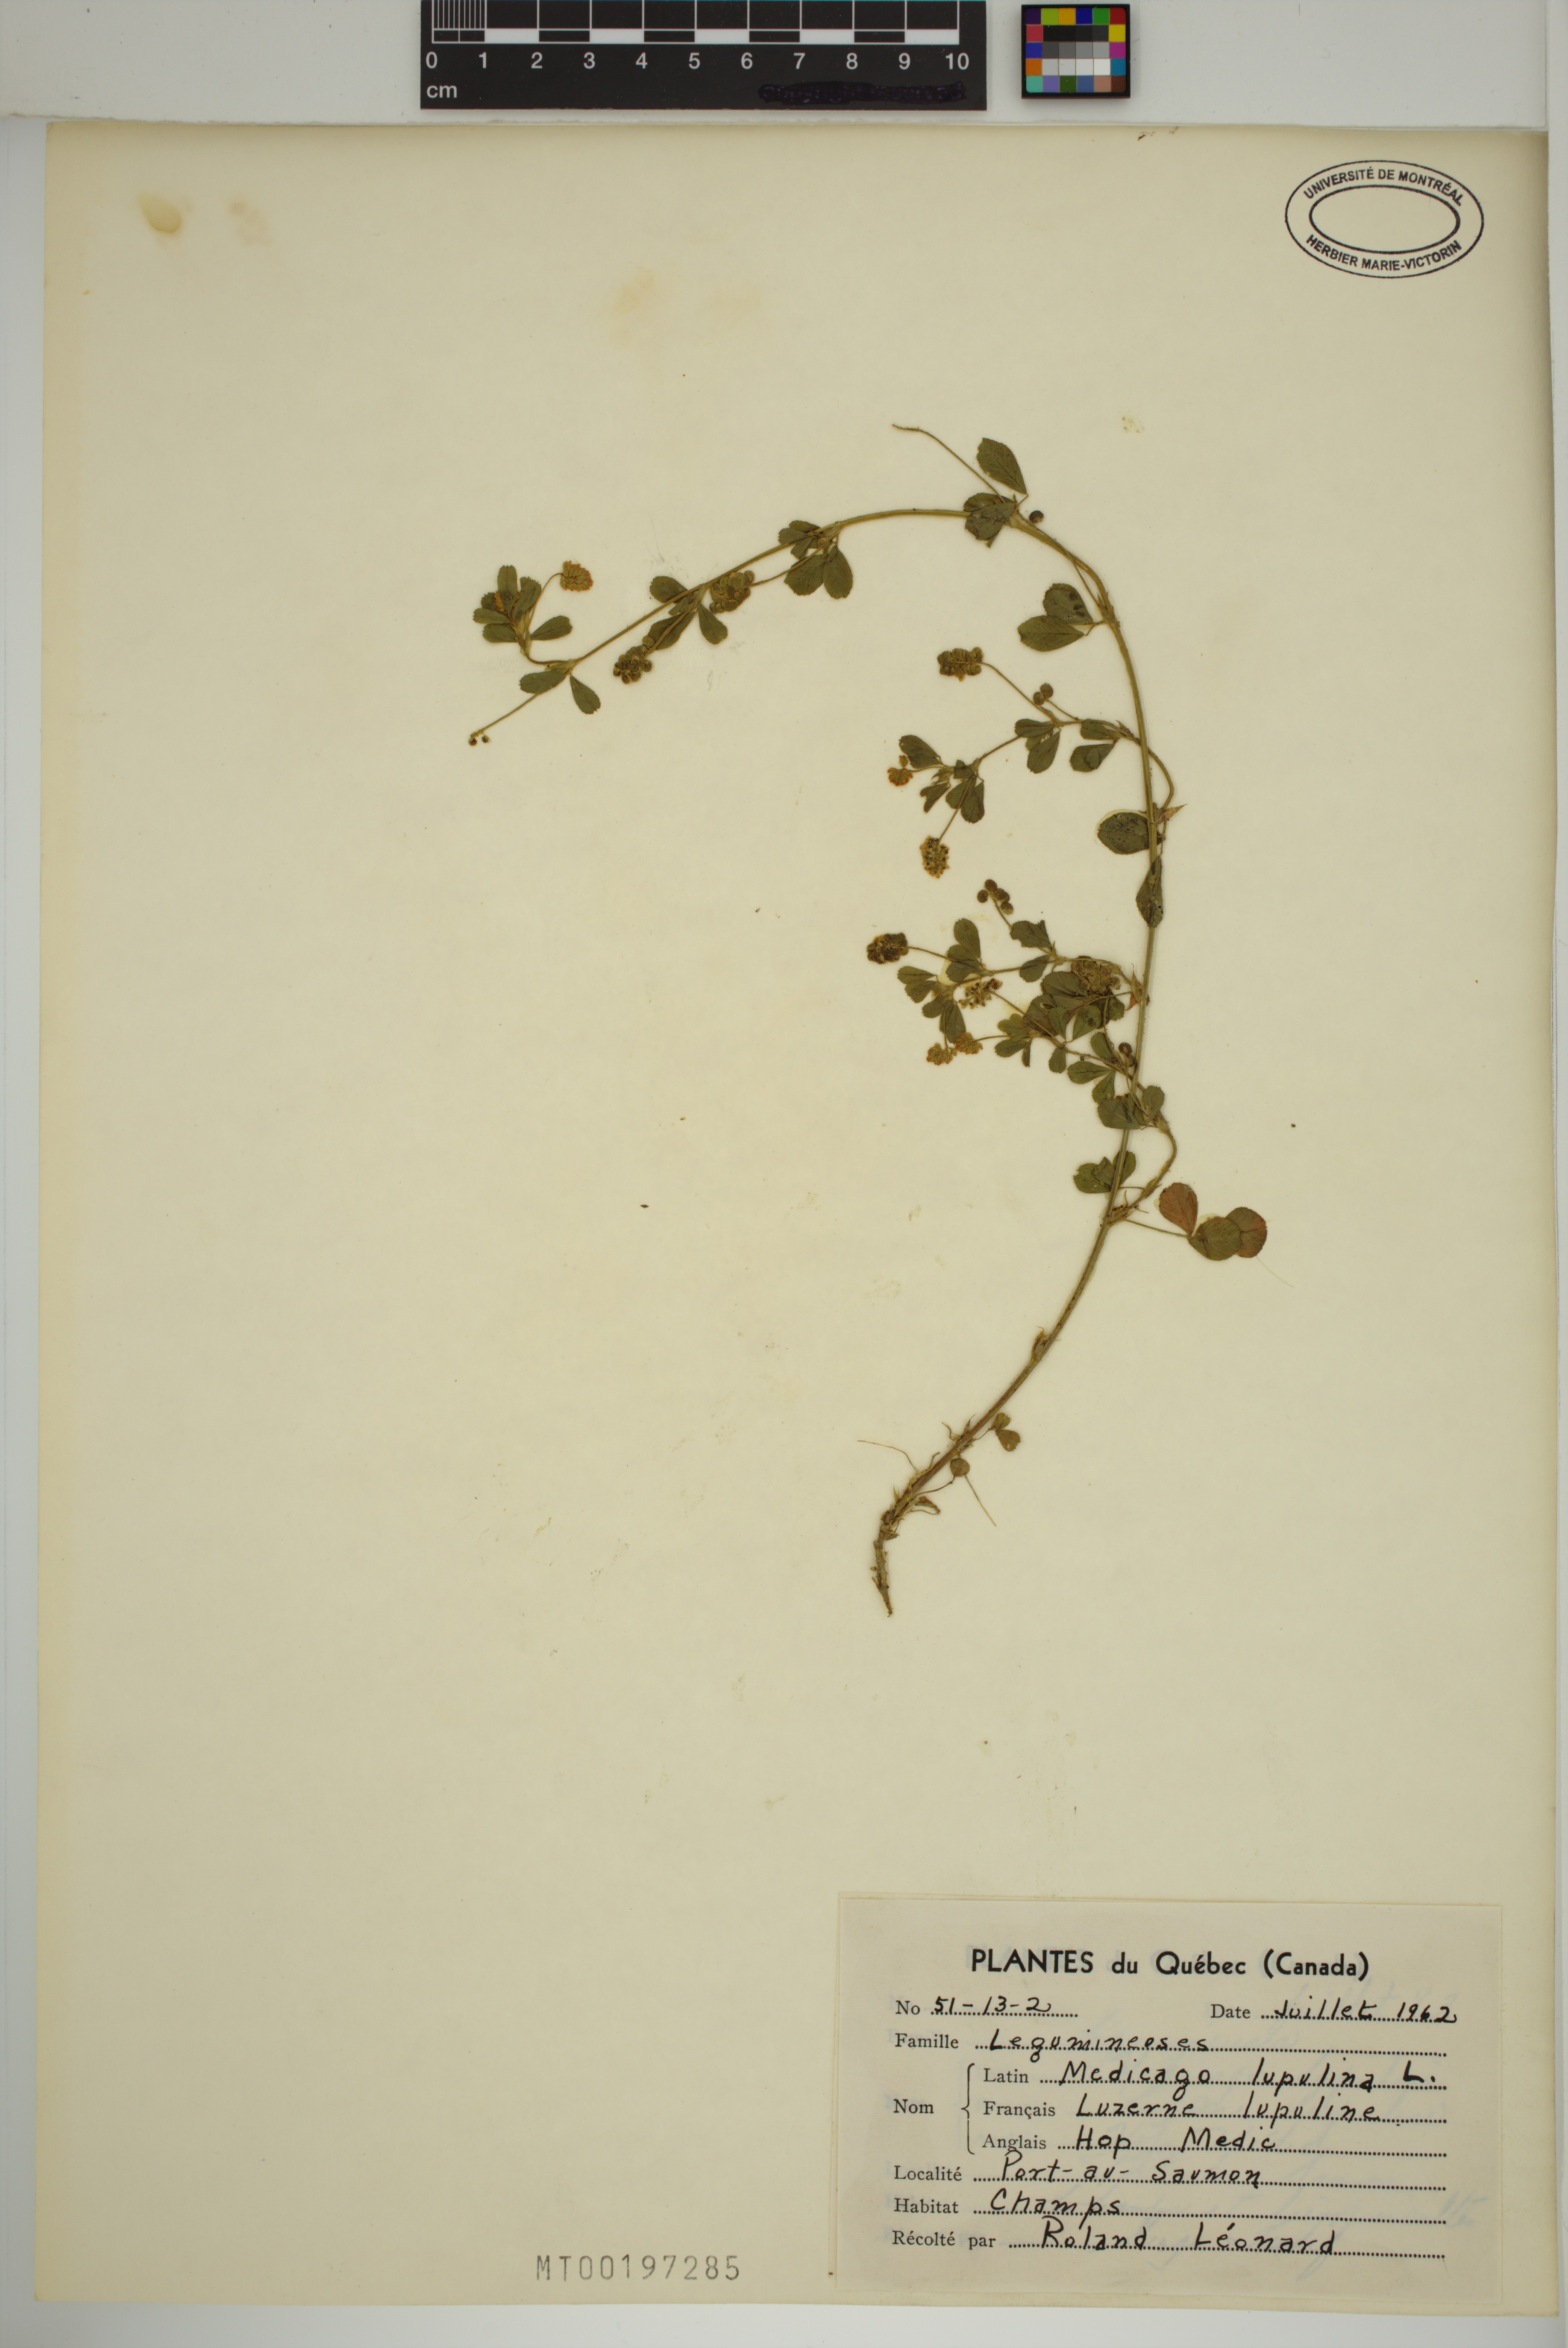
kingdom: Plantae
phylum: Tracheophyta
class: Magnoliopsida
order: Fabales
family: Fabaceae
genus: Medicago
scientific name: Medicago lupulina
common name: Black medick
